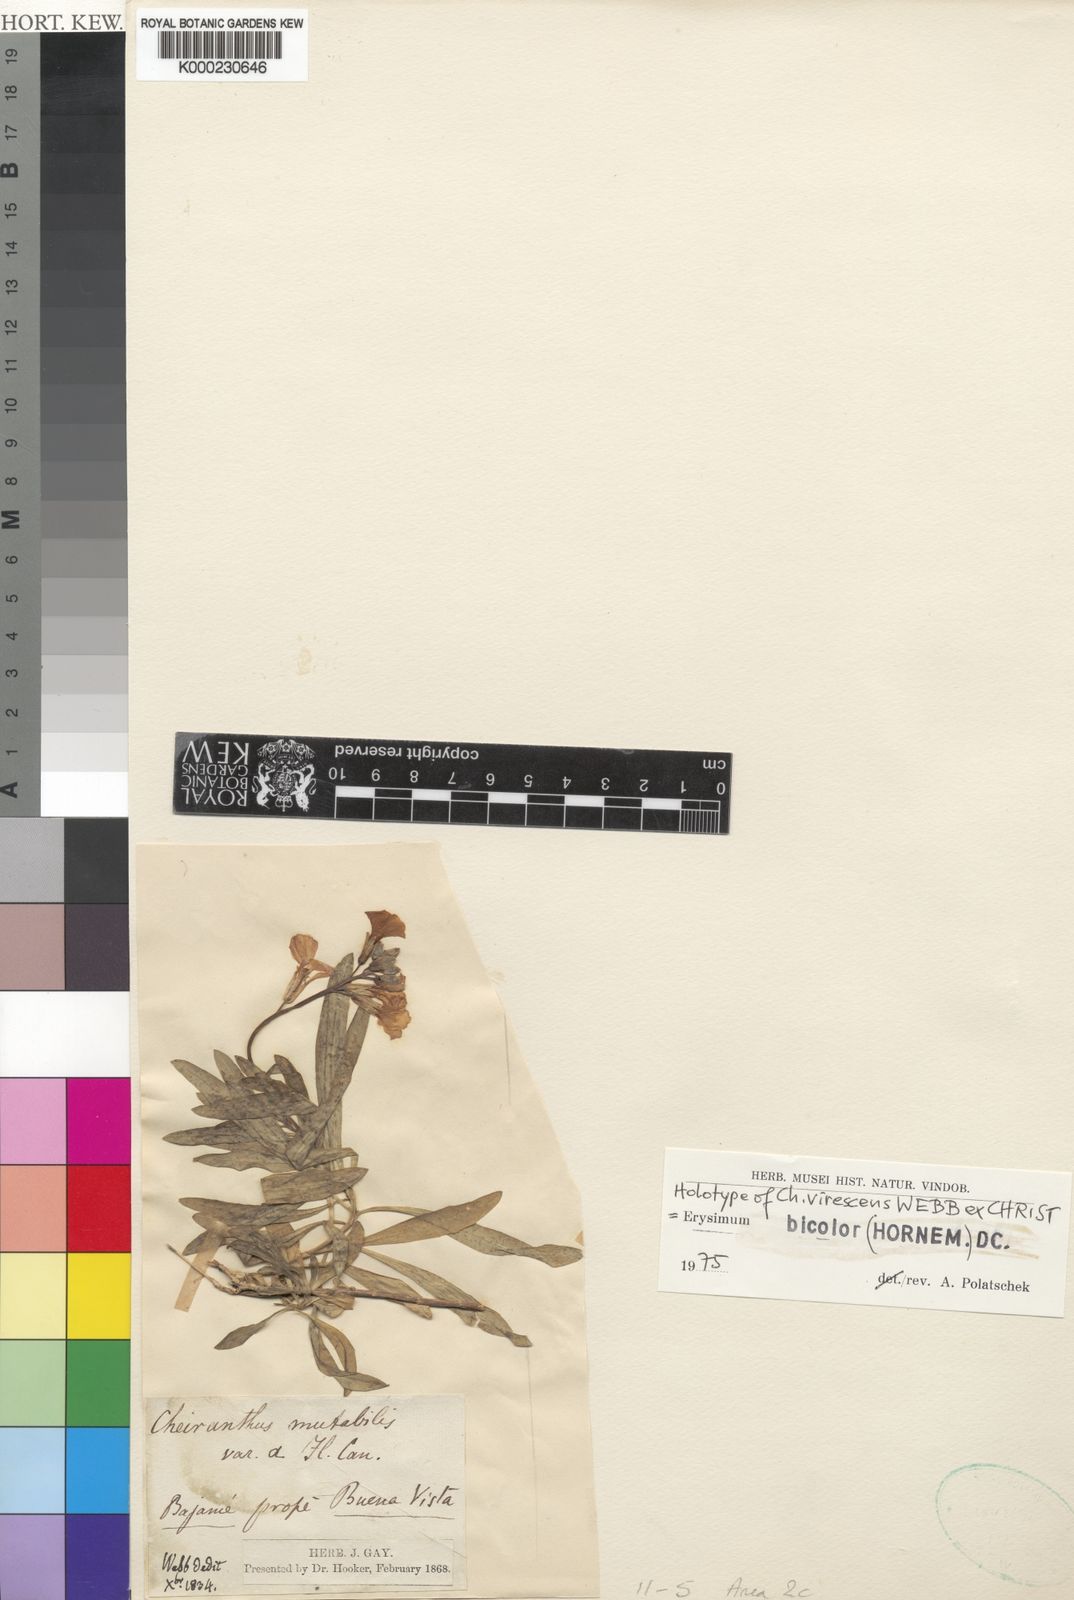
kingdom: Plantae
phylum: Tracheophyta
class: Magnoliopsida
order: Brassicales
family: Brassicaceae
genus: Erysimum
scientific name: Erysimum bicolor
